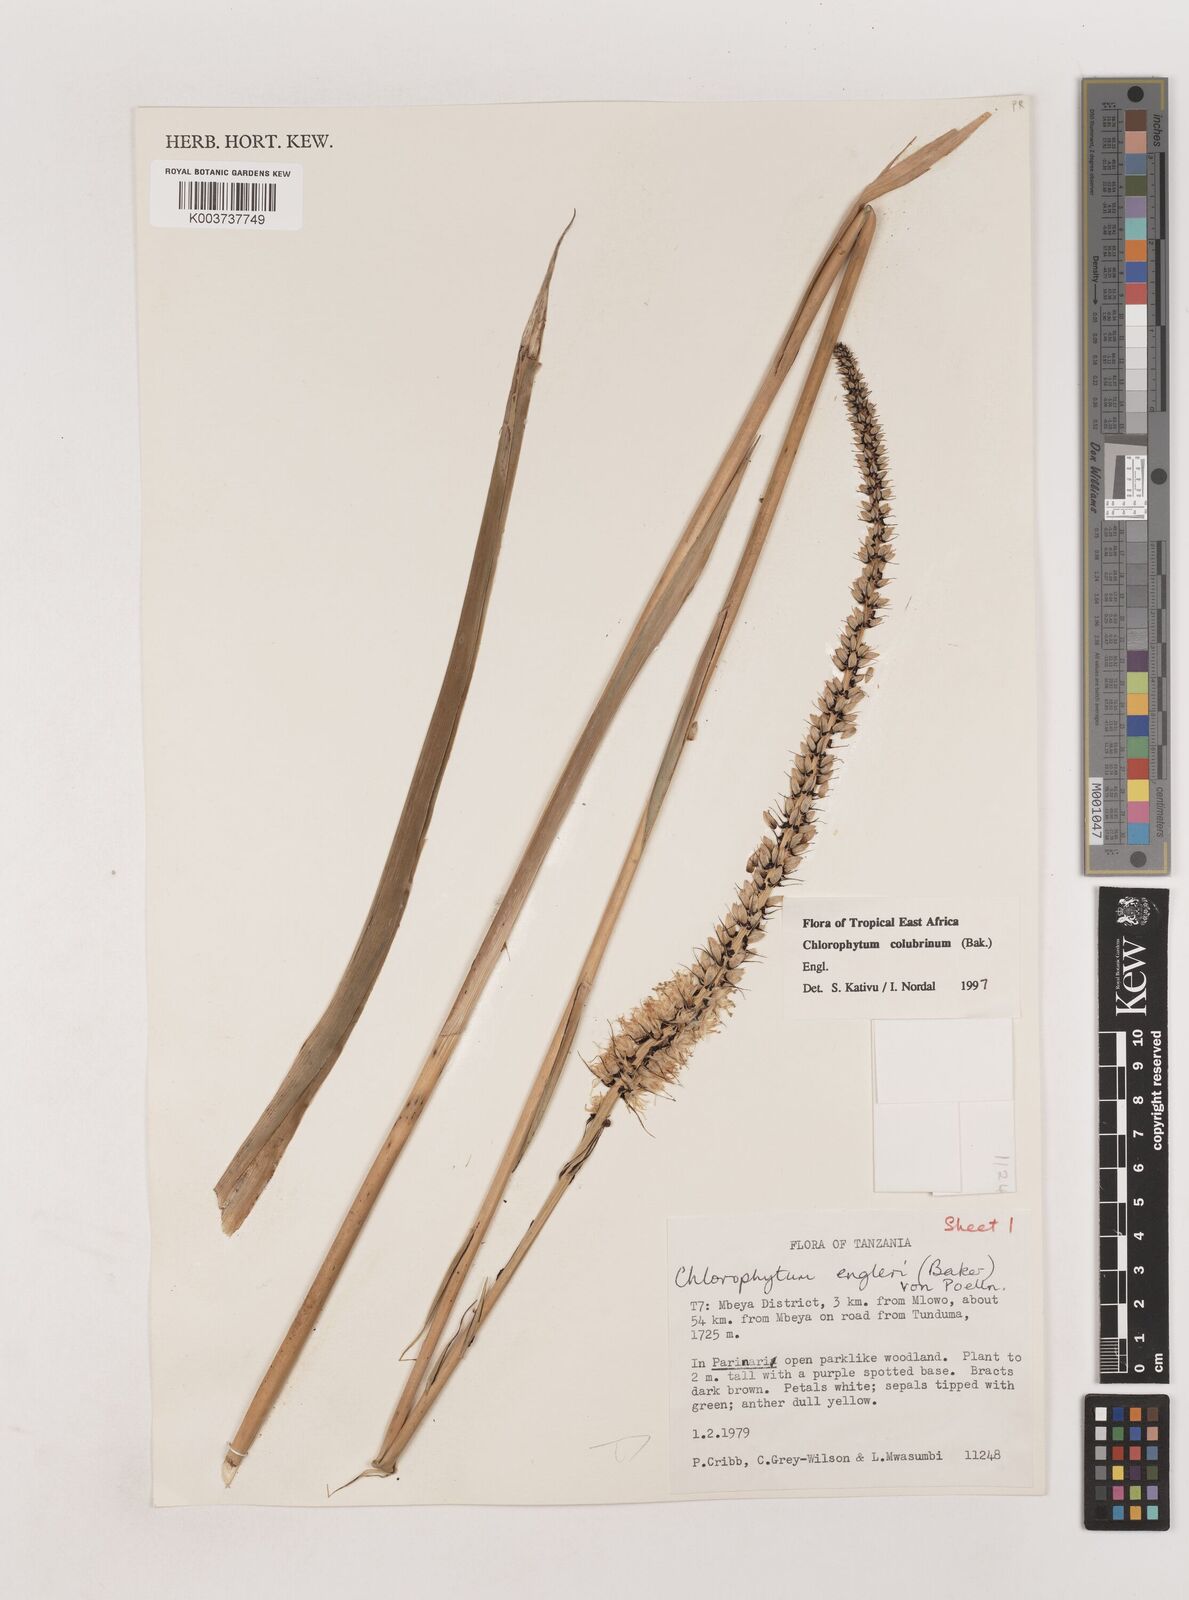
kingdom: Plantae
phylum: Tracheophyta
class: Liliopsida
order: Asparagales
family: Asparagaceae
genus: Chlorophytum
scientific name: Chlorophytum colubrinum
